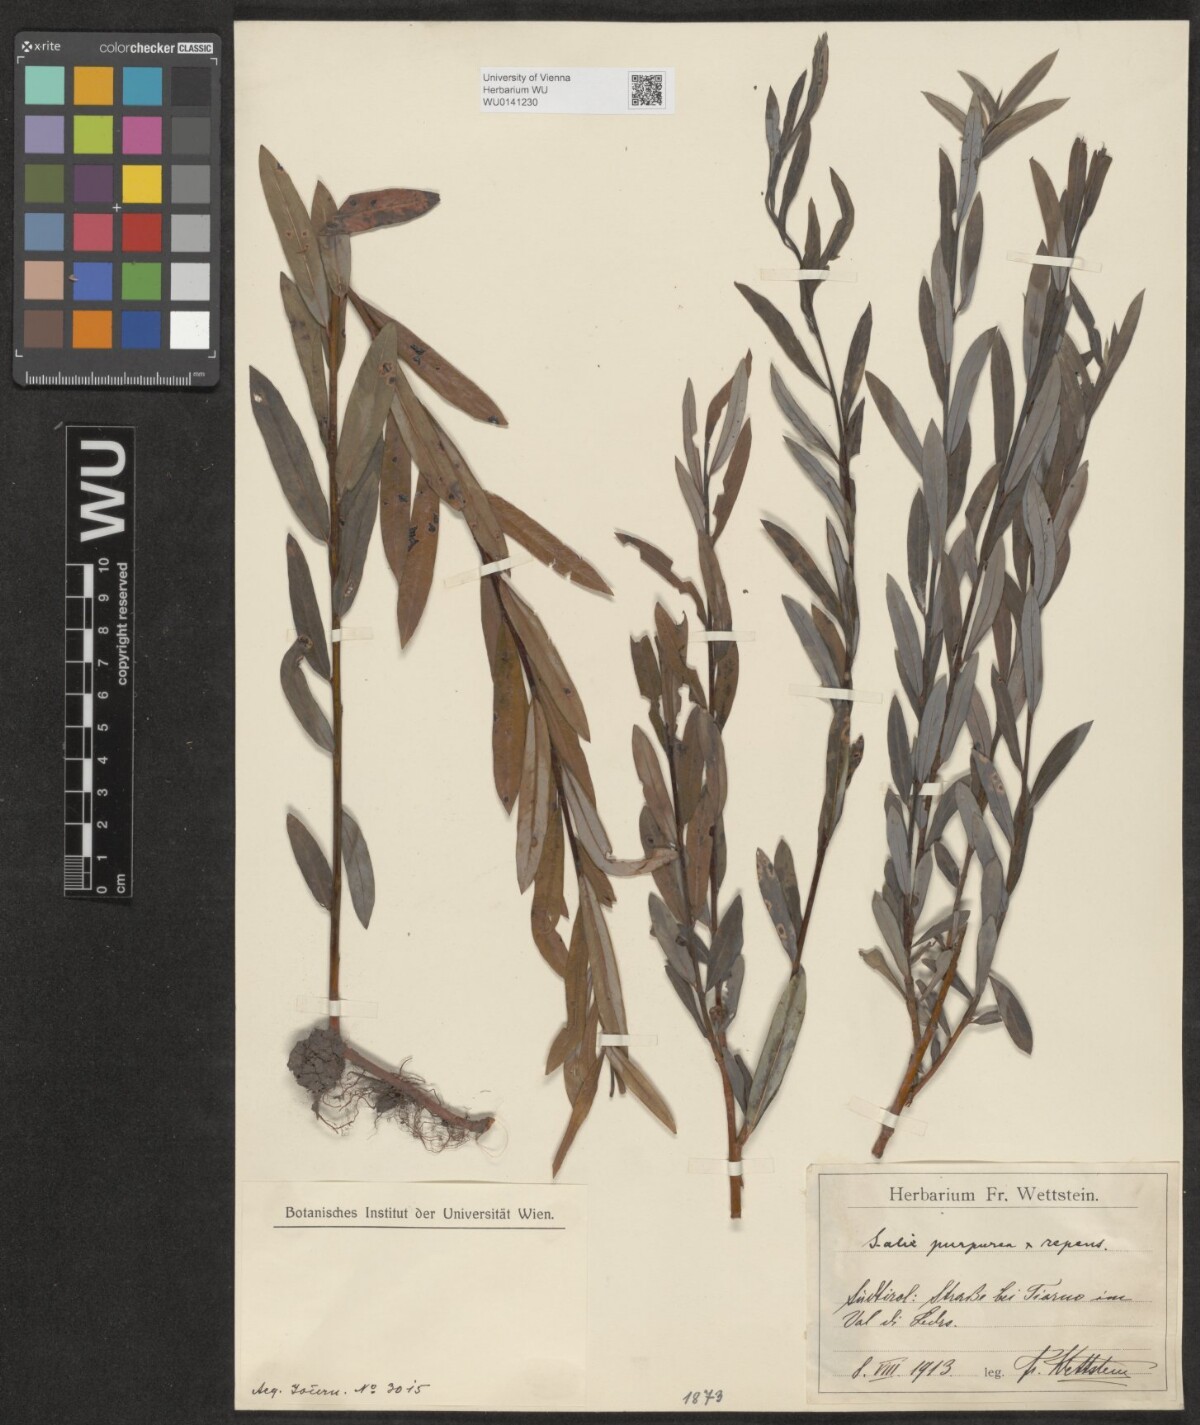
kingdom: Plantae
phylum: Tracheophyta
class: Magnoliopsida
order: Malpighiales
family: Salicaceae
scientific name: Salicaceae
